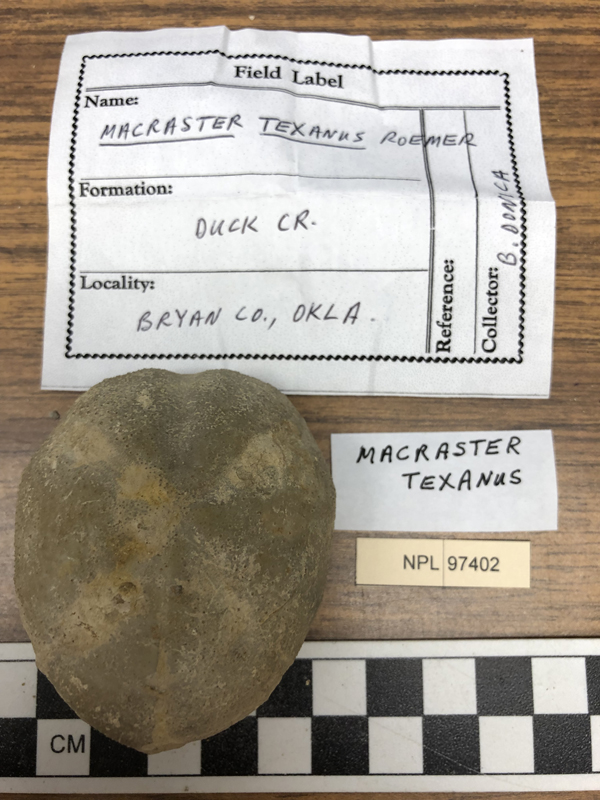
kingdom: Animalia
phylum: Echinodermata
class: Echinoidea
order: Spatangoida
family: Toxasteridae
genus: Macraster
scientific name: Macraster elegans
